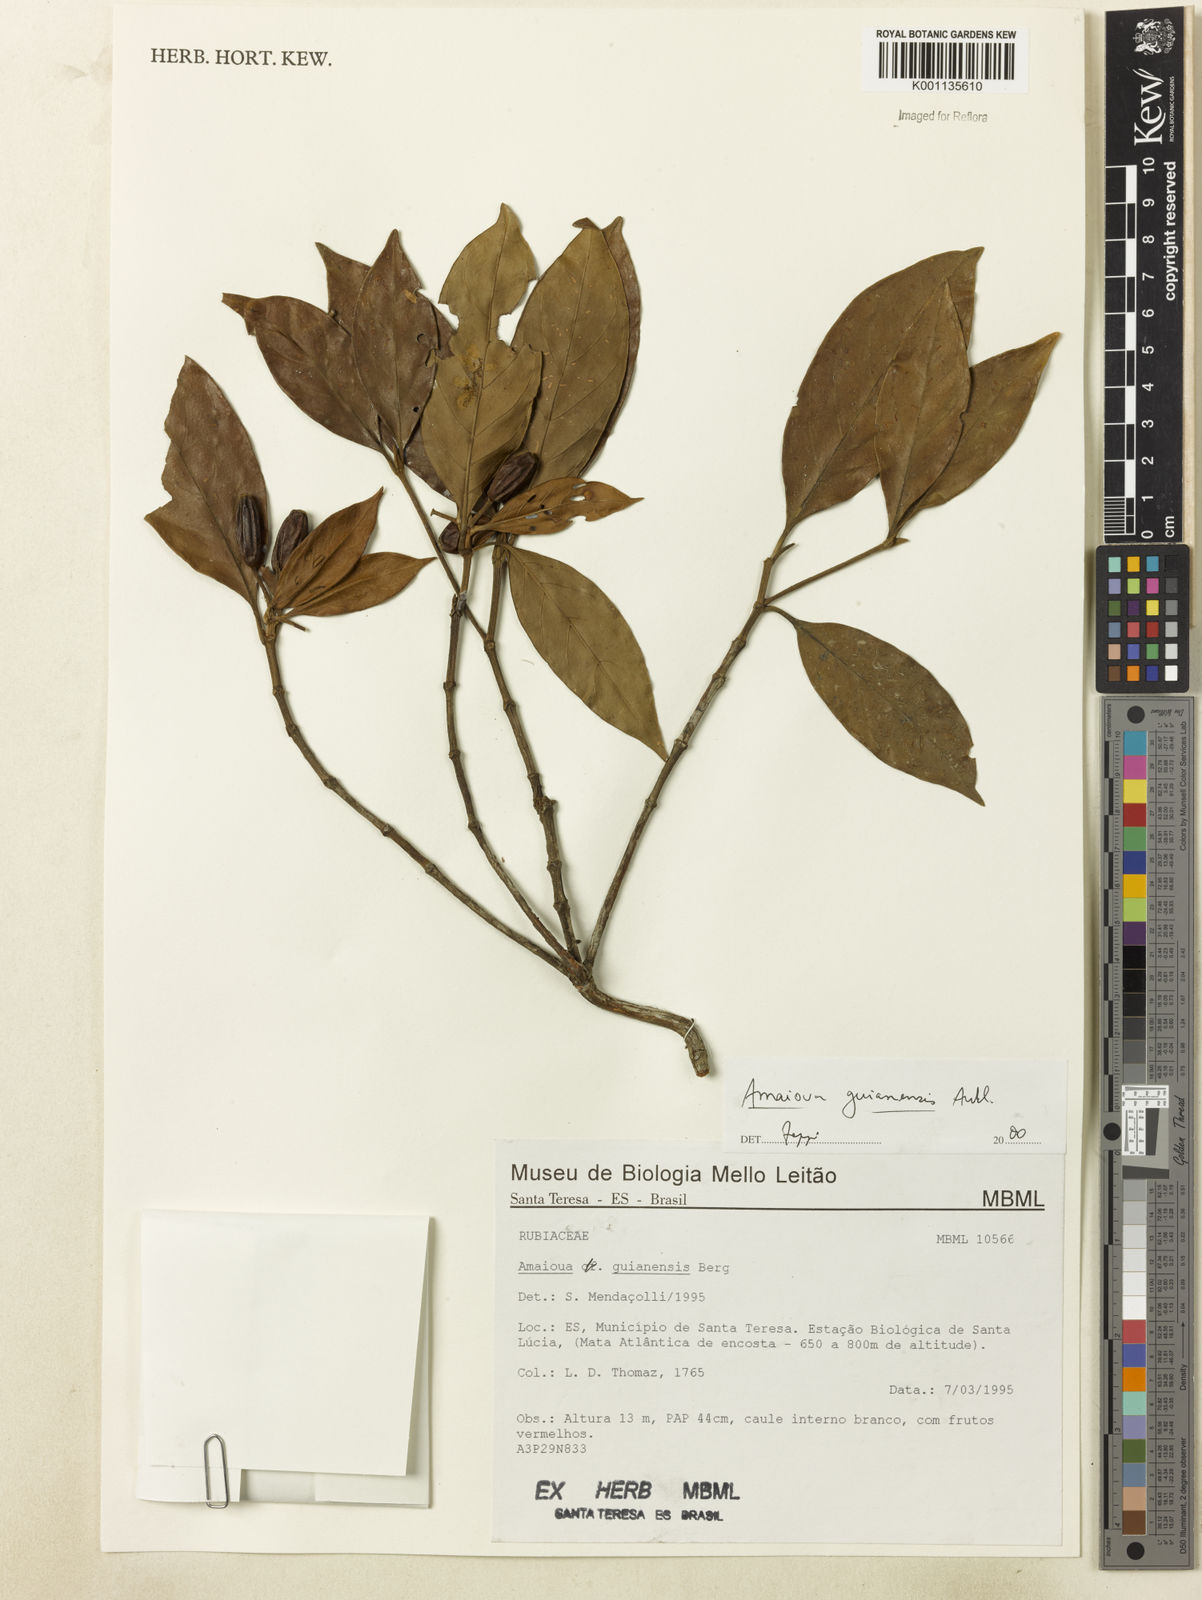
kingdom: Plantae
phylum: Tracheophyta
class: Magnoliopsida
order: Gentianales
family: Rubiaceae
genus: Amaioua
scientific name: Amaioua intermedia
